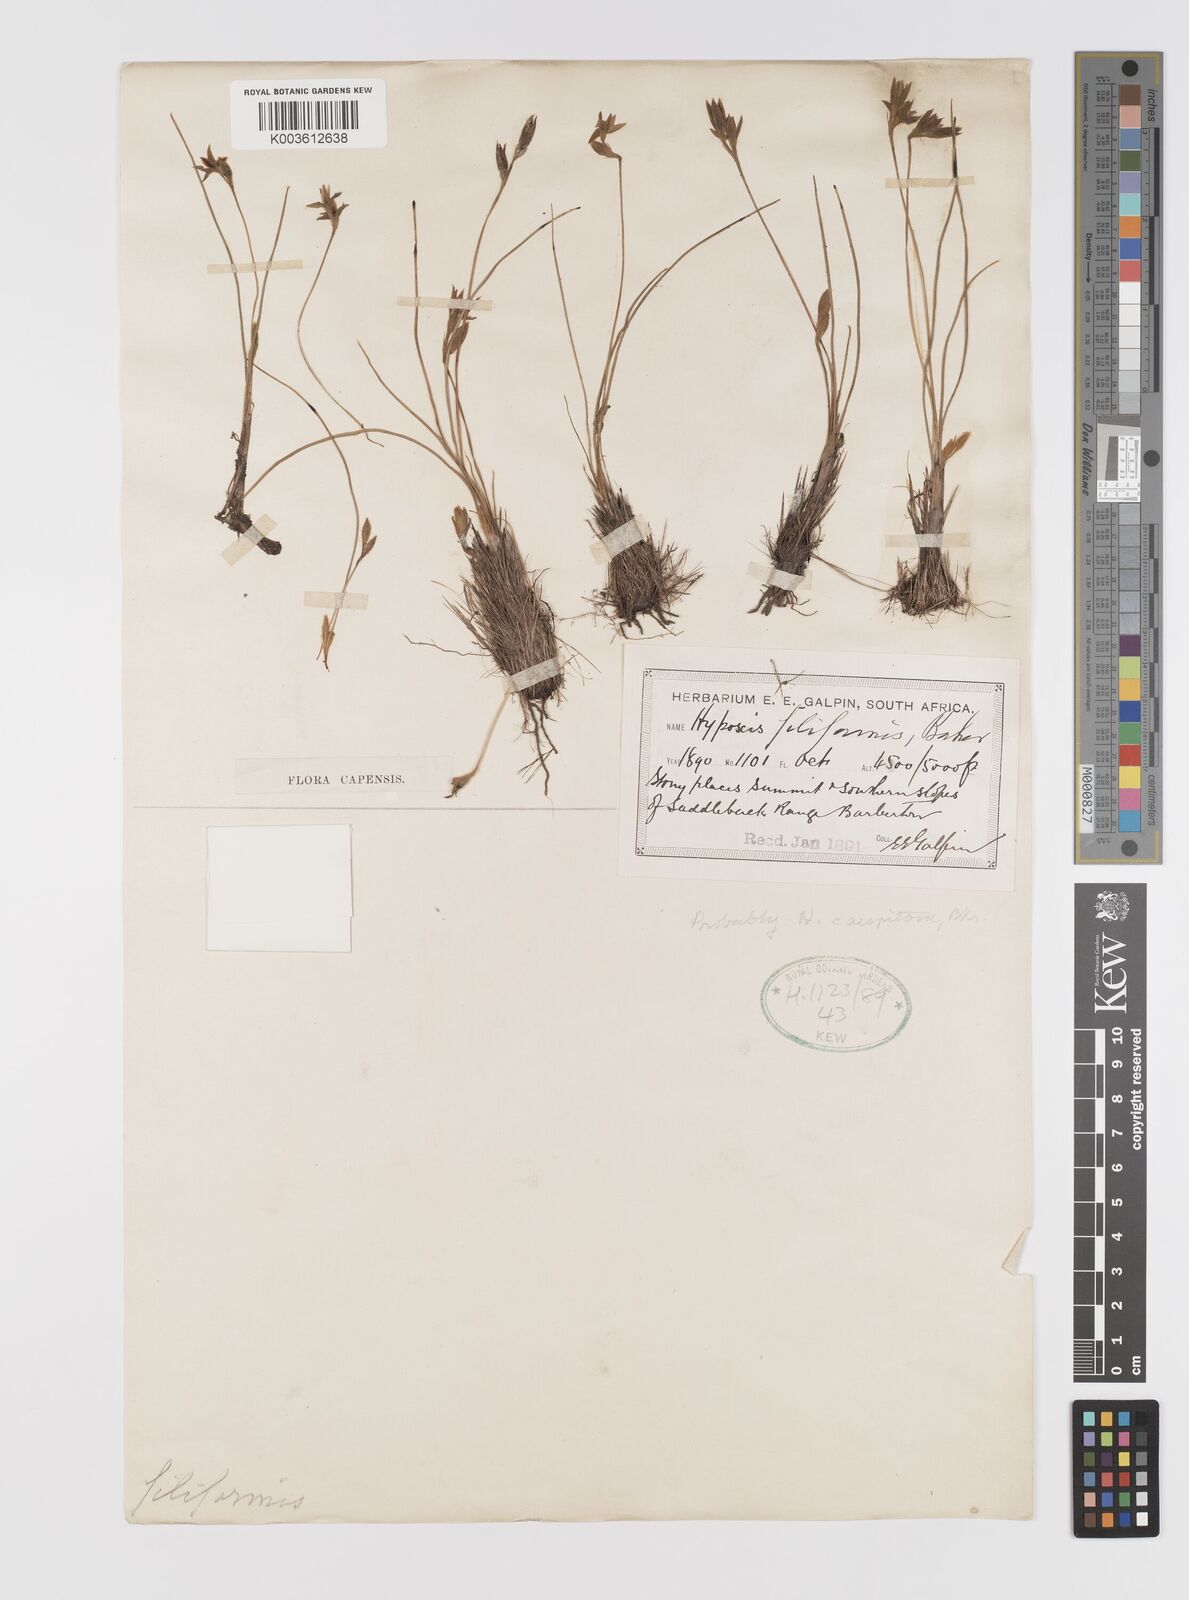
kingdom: Plantae
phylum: Tracheophyta
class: Liliopsida
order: Asparagales
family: Hypoxidaceae
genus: Hypoxis
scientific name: Hypoxis filiformis
